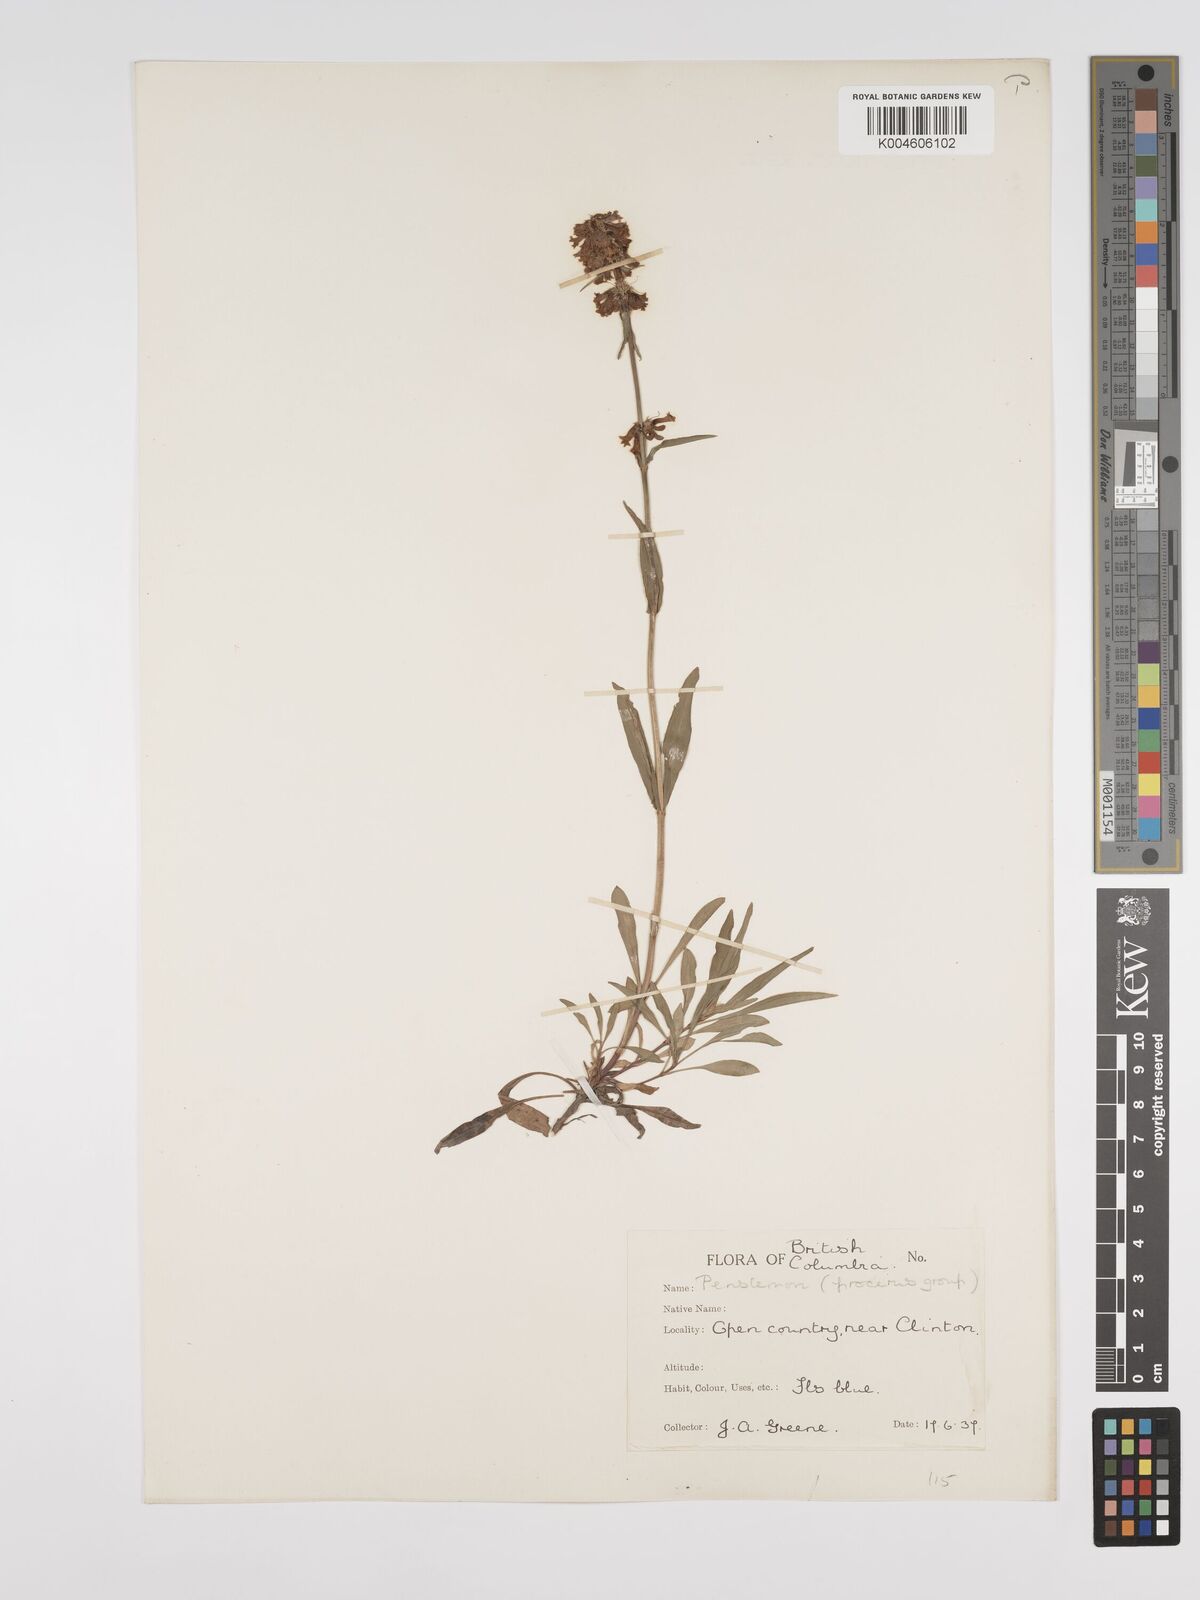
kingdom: Plantae
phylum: Tracheophyta
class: Magnoliopsida
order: Lamiales
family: Plantaginaceae
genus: Penstemon
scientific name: Penstemon
